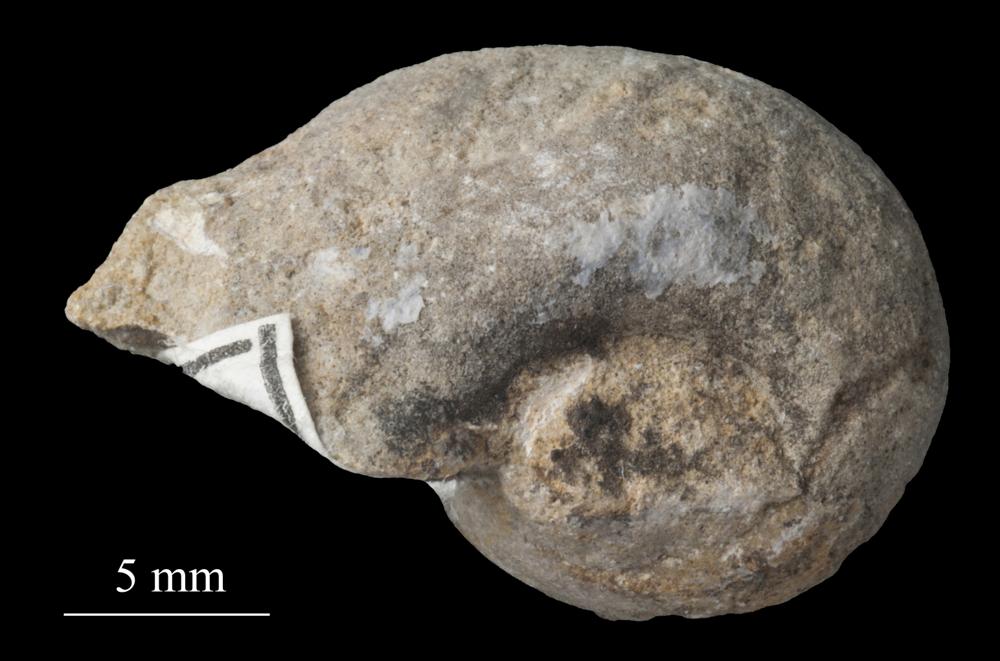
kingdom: Animalia
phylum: Mollusca
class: Gastropoda
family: Bellerophontidae
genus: Bellerophon
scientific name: Bellerophon
